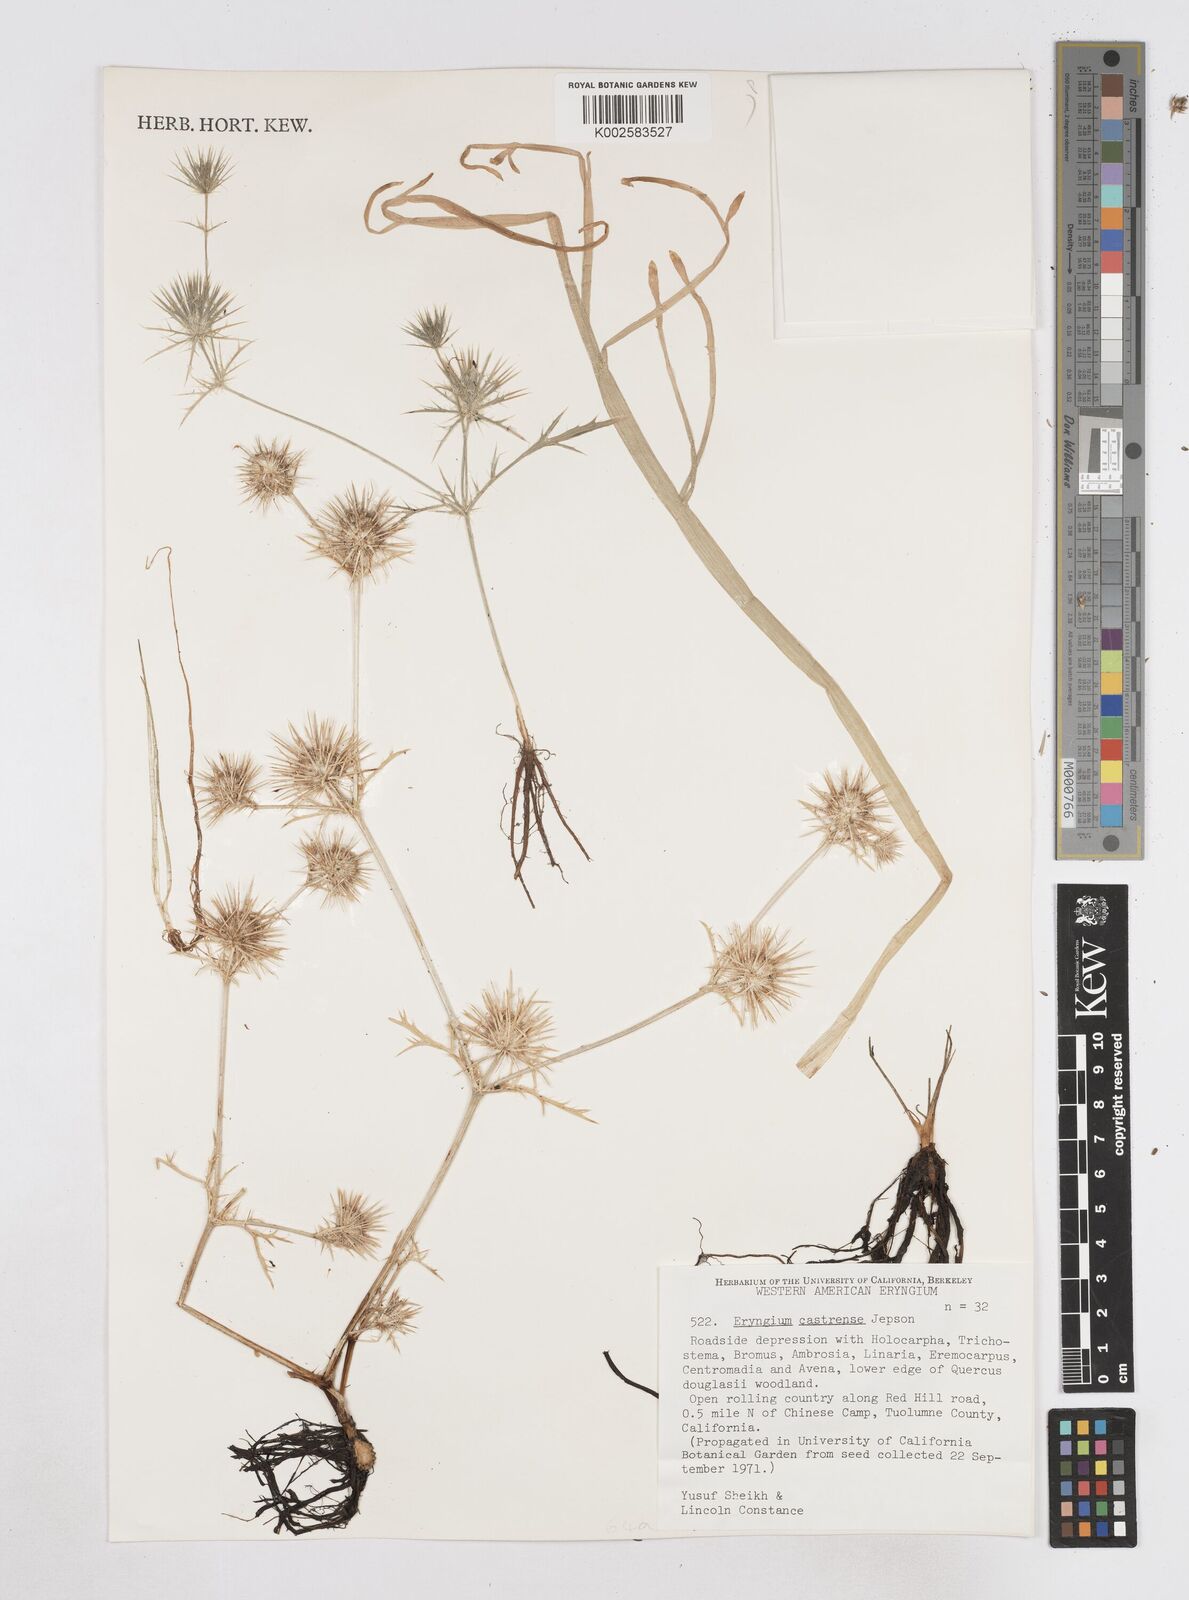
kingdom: Plantae
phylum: Tracheophyta
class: Magnoliopsida
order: Apiales
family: Apiaceae
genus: Eryngium
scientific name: Eryngium castrense
